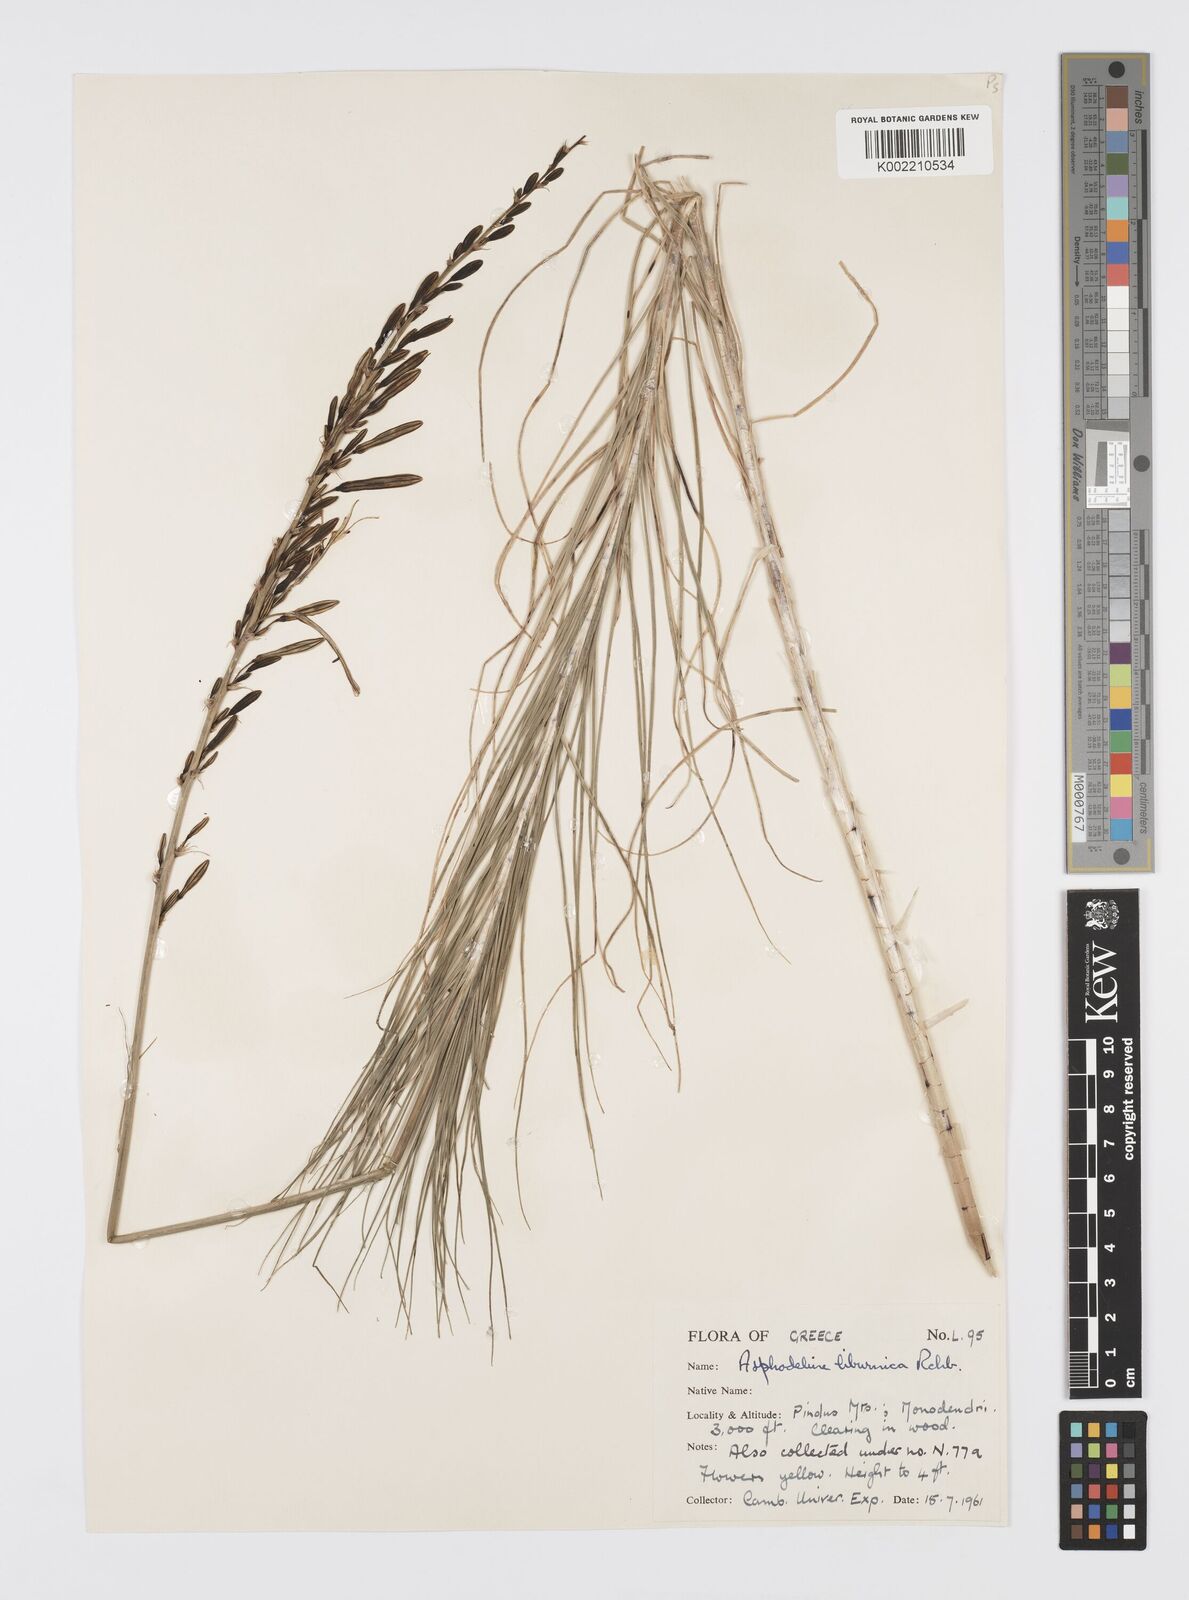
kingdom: Plantae
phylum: Tracheophyta
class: Liliopsida
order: Asparagales
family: Asphodelaceae
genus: Asphodeline
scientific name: Asphodeline liburnica
